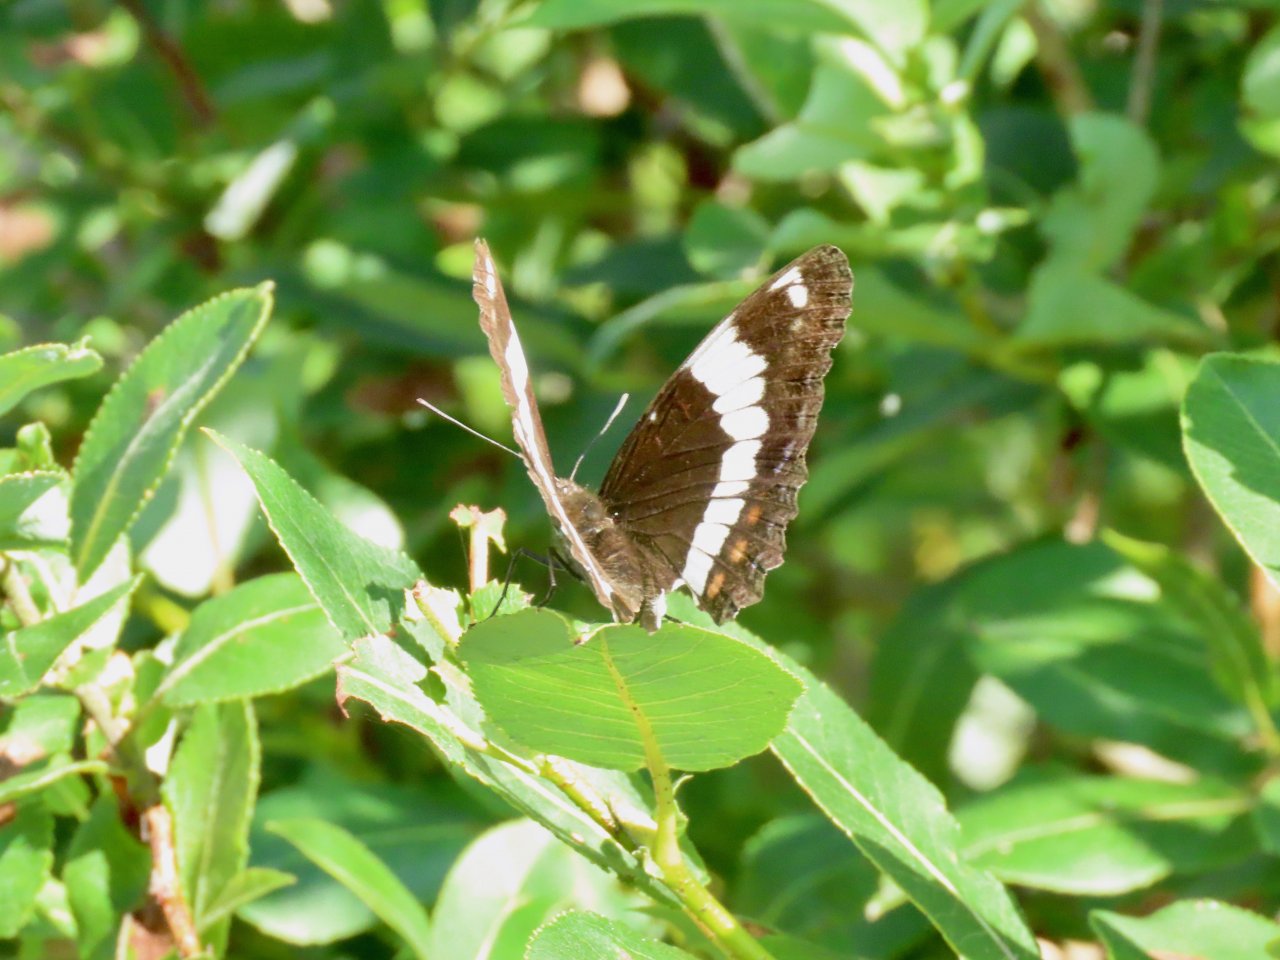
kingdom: Animalia
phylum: Arthropoda
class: Insecta
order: Lepidoptera
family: Nymphalidae
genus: Limenitis
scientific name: Limenitis arthemis
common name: Red-spotted Admiral
